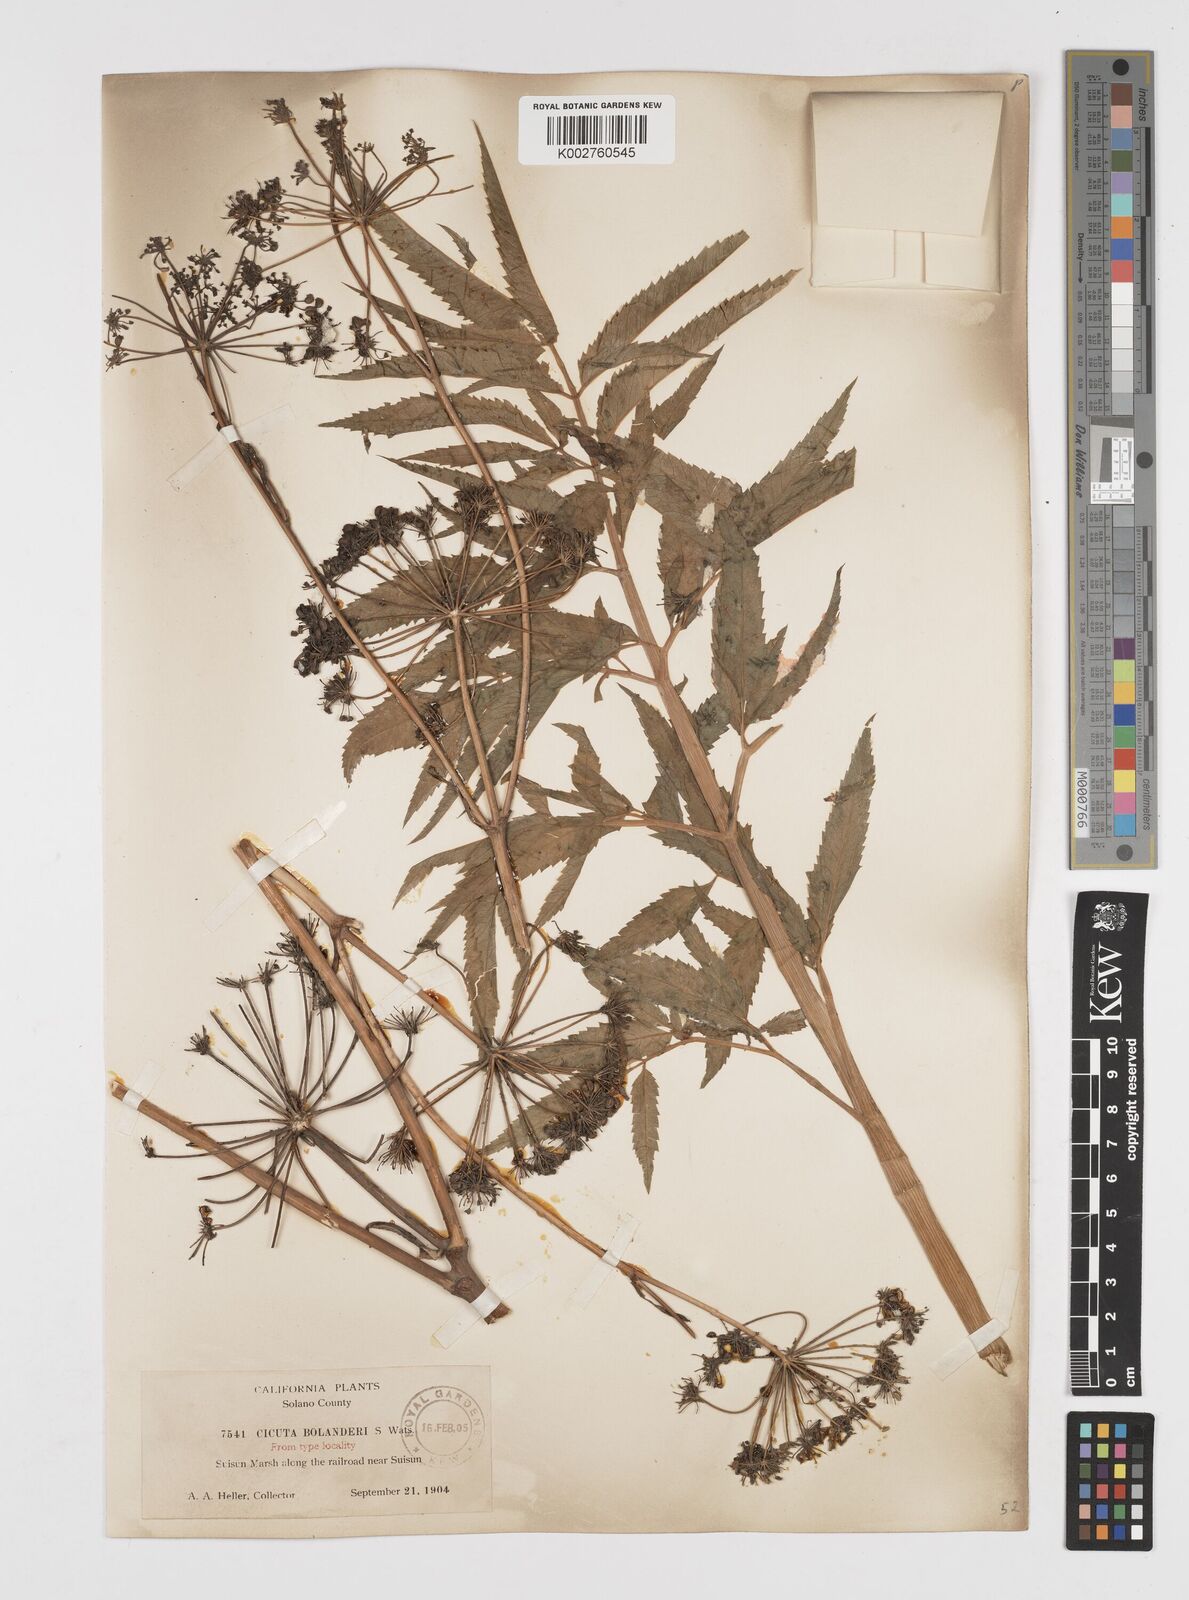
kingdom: Plantae
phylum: Tracheophyta
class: Magnoliopsida
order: Apiales
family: Apiaceae
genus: Cicuta
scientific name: Cicuta maculata
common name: Spotted cowbane
